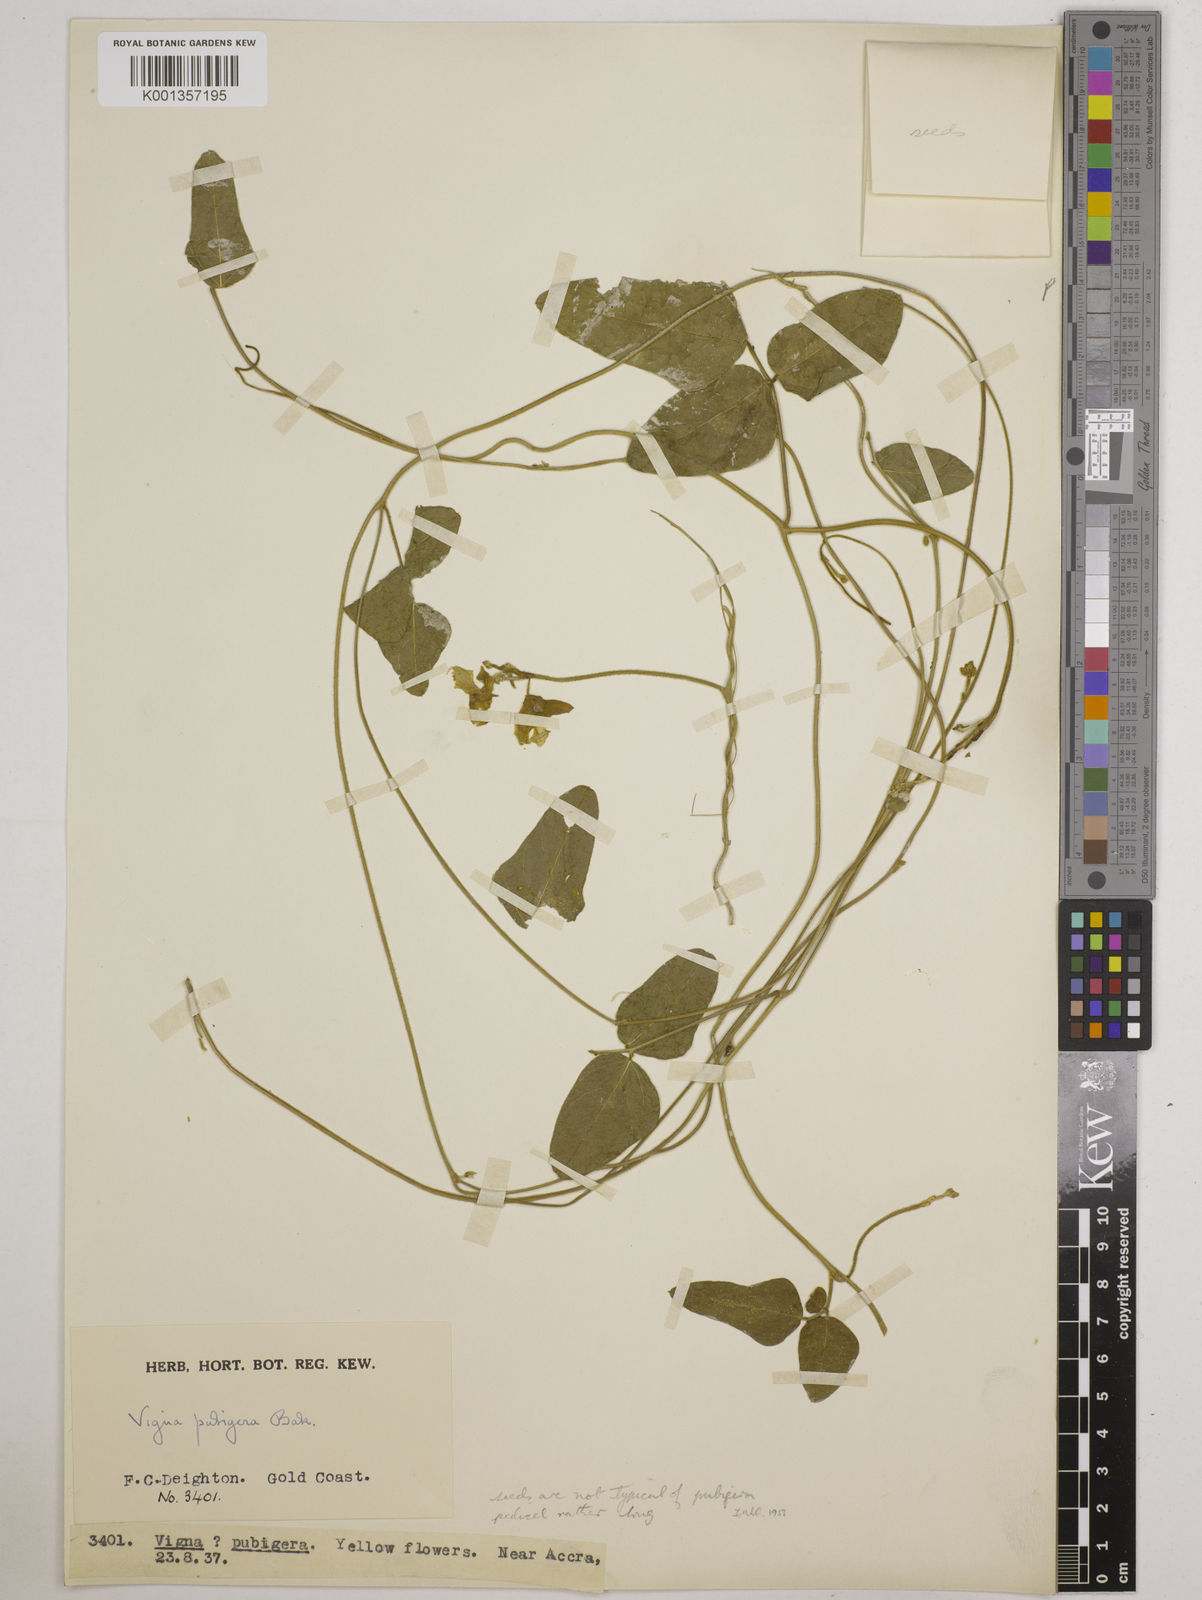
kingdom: Plantae
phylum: Tracheophyta
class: Magnoliopsida
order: Fabales
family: Fabaceae
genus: Vigna
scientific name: Vigna ambacensis
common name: Tsarkiyan zomo
